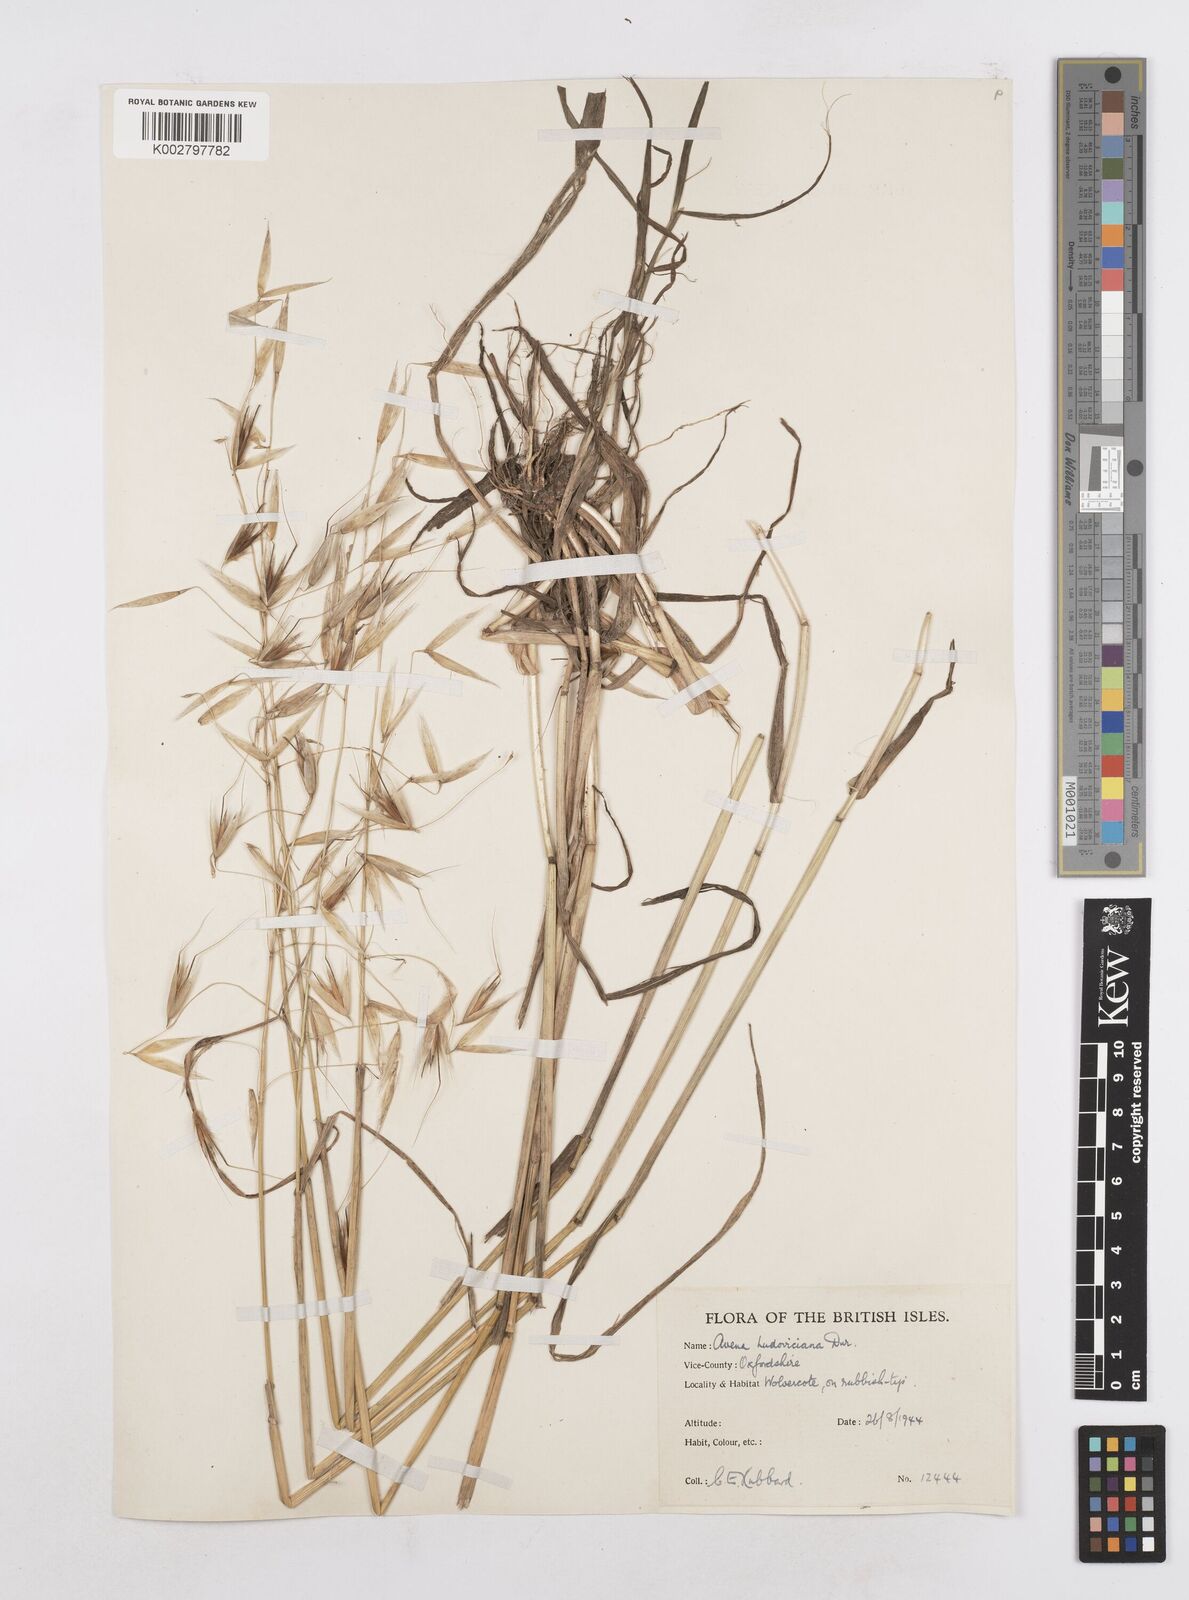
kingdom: Plantae
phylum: Tracheophyta
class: Liliopsida
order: Poales
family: Poaceae
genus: Avena
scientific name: Avena sterilis
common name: Animated oat
